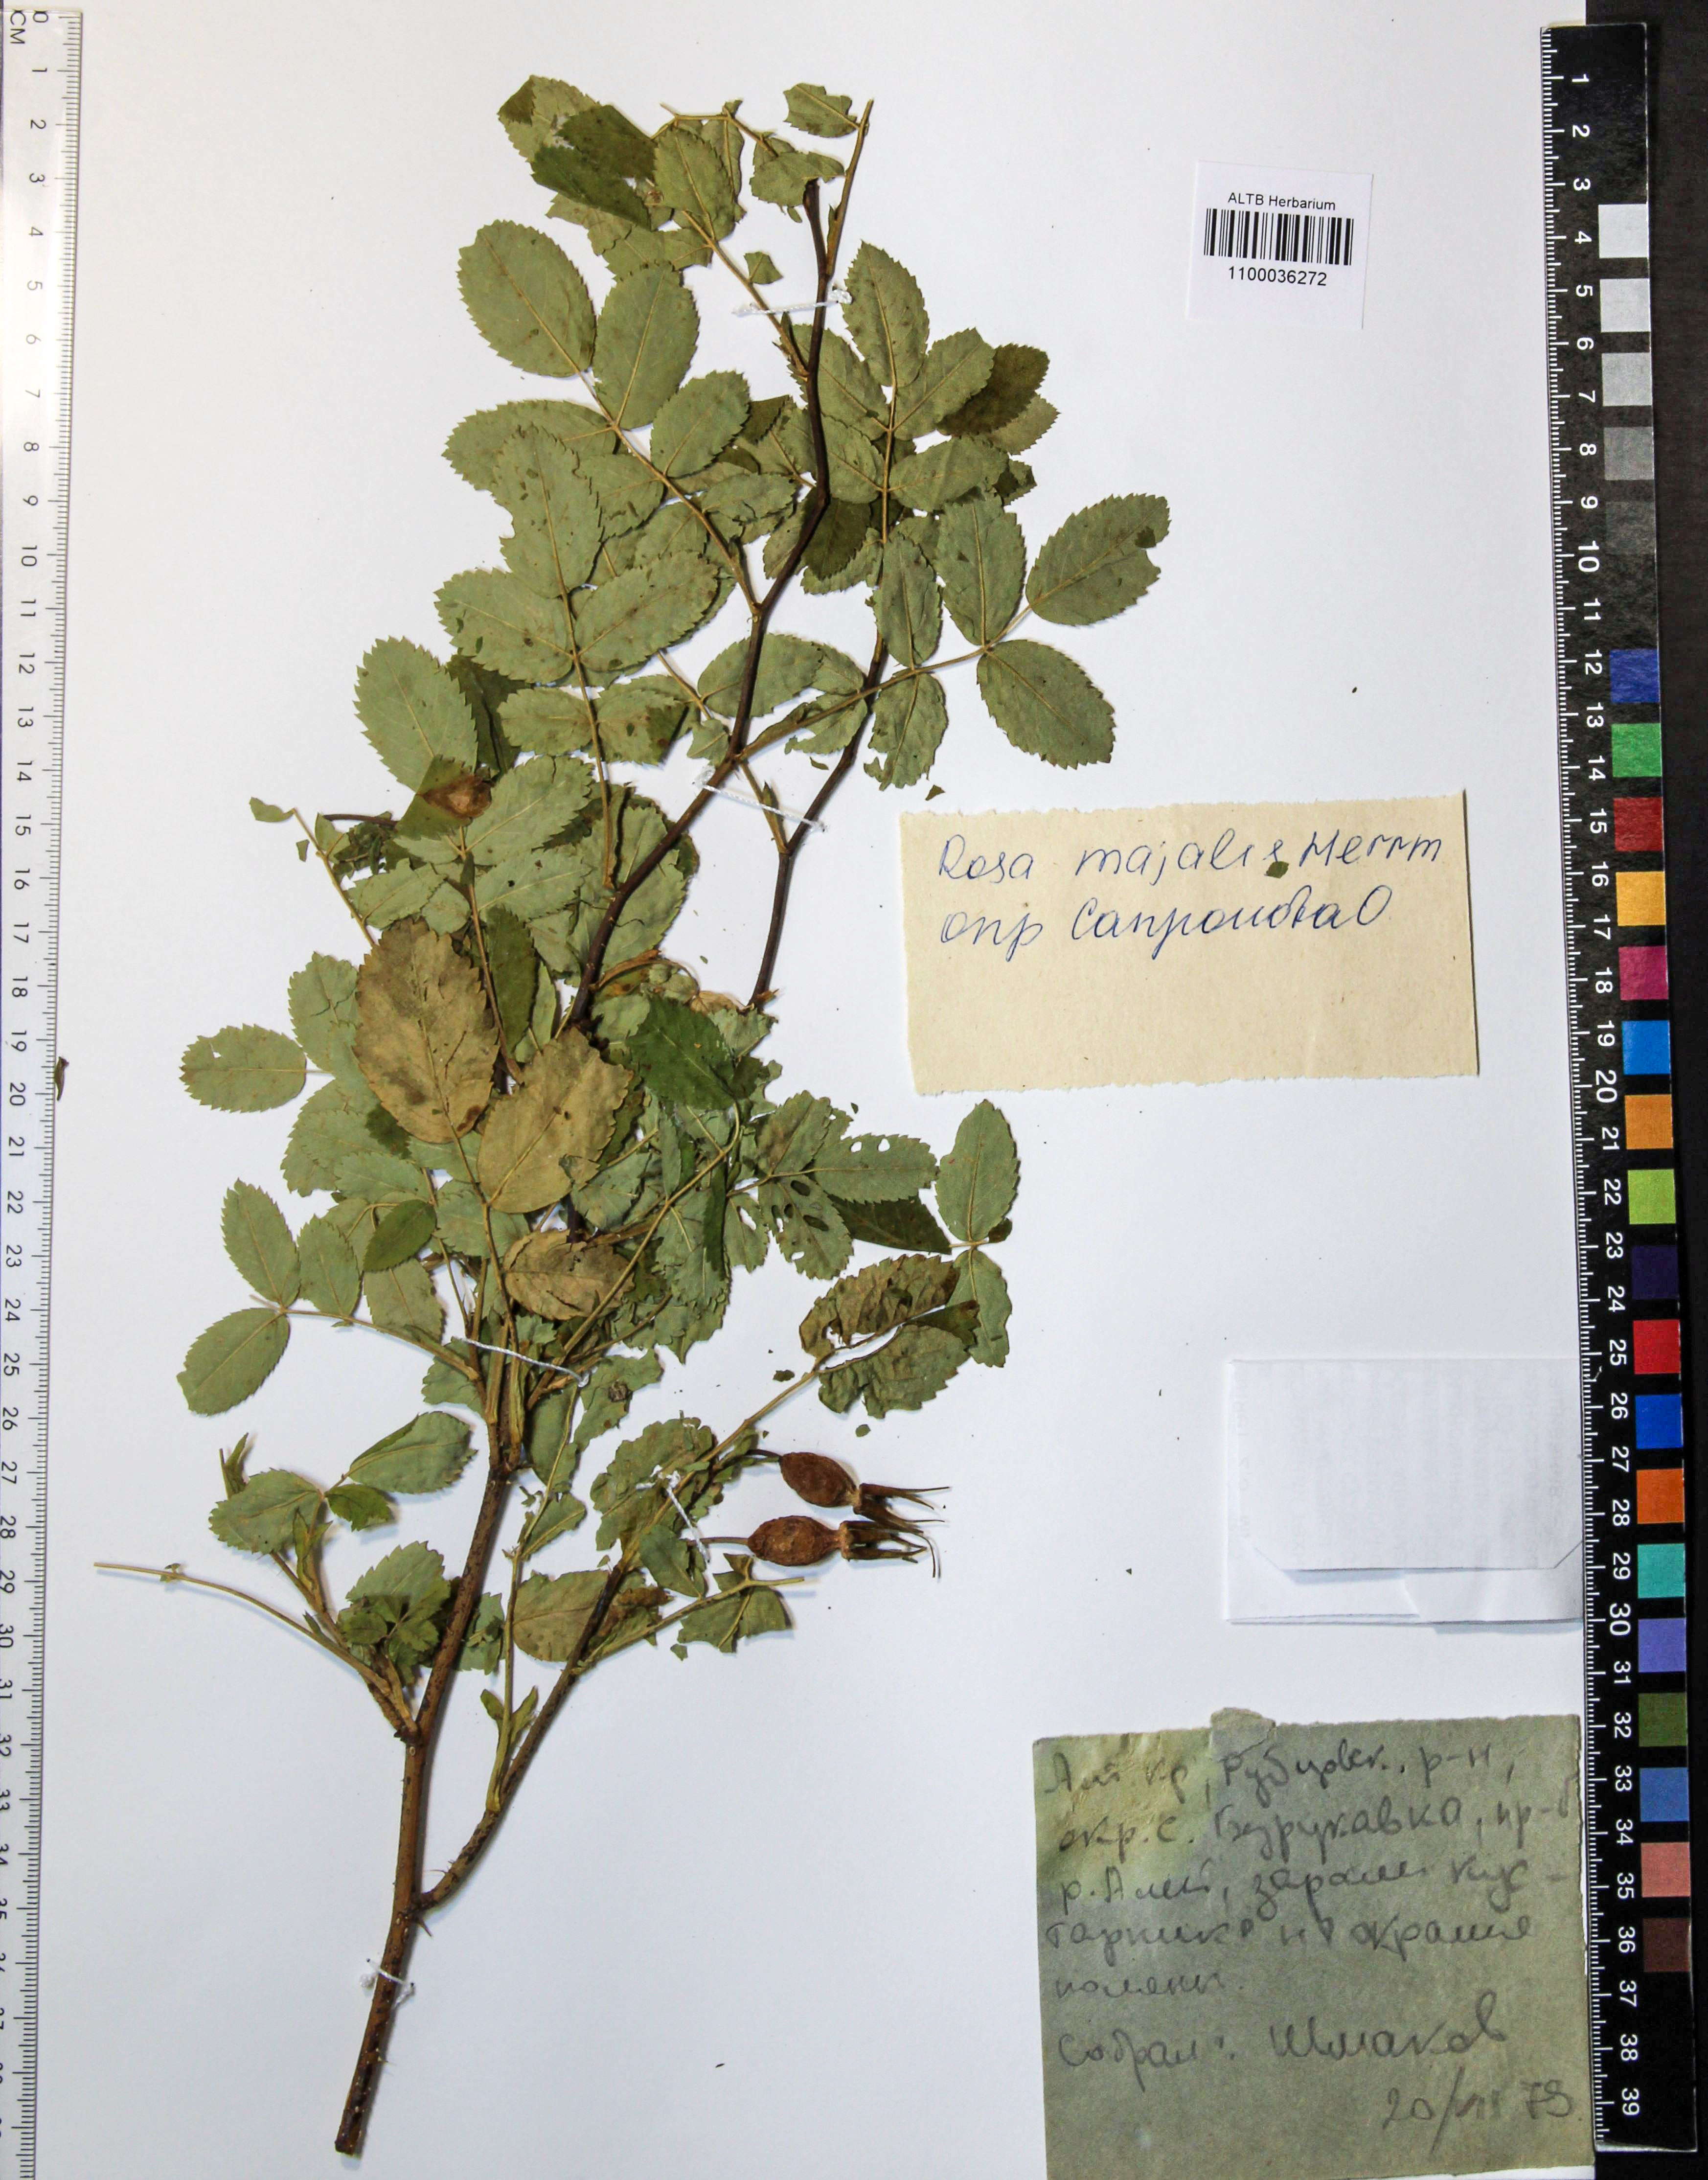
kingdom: Plantae
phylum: Tracheophyta
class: Magnoliopsida
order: Rosales
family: Rosaceae
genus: Rosa
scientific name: Rosa majalis
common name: Cinnamon rose
